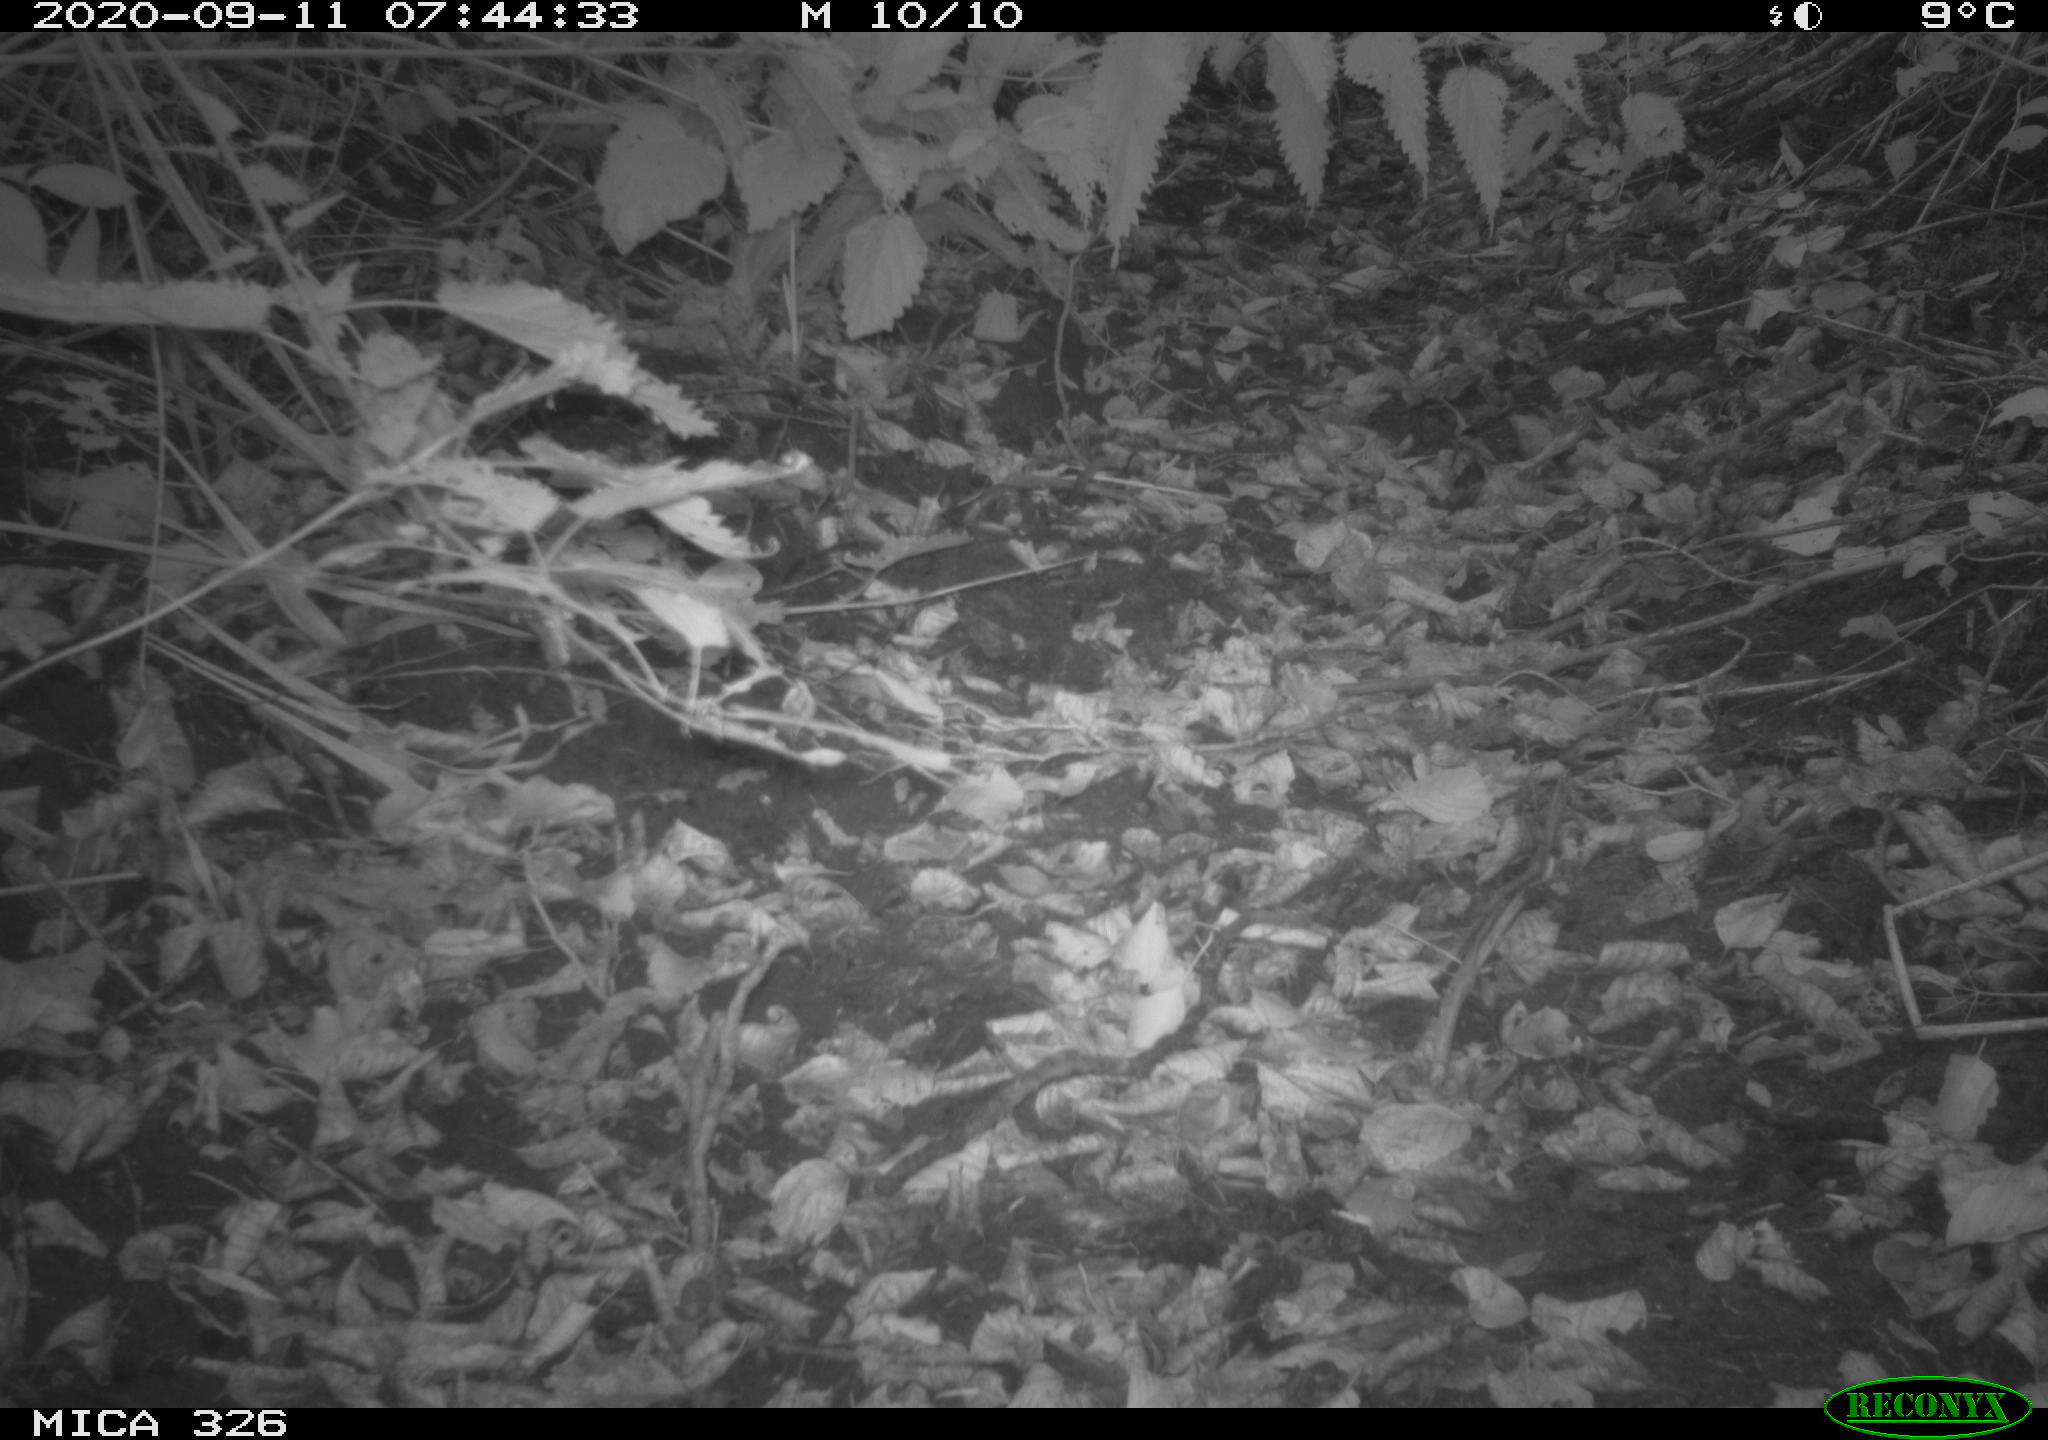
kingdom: Animalia
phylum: Chordata
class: Mammalia
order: Carnivora
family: Mustelidae
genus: Martes
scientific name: Martes foina
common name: Beech marten
